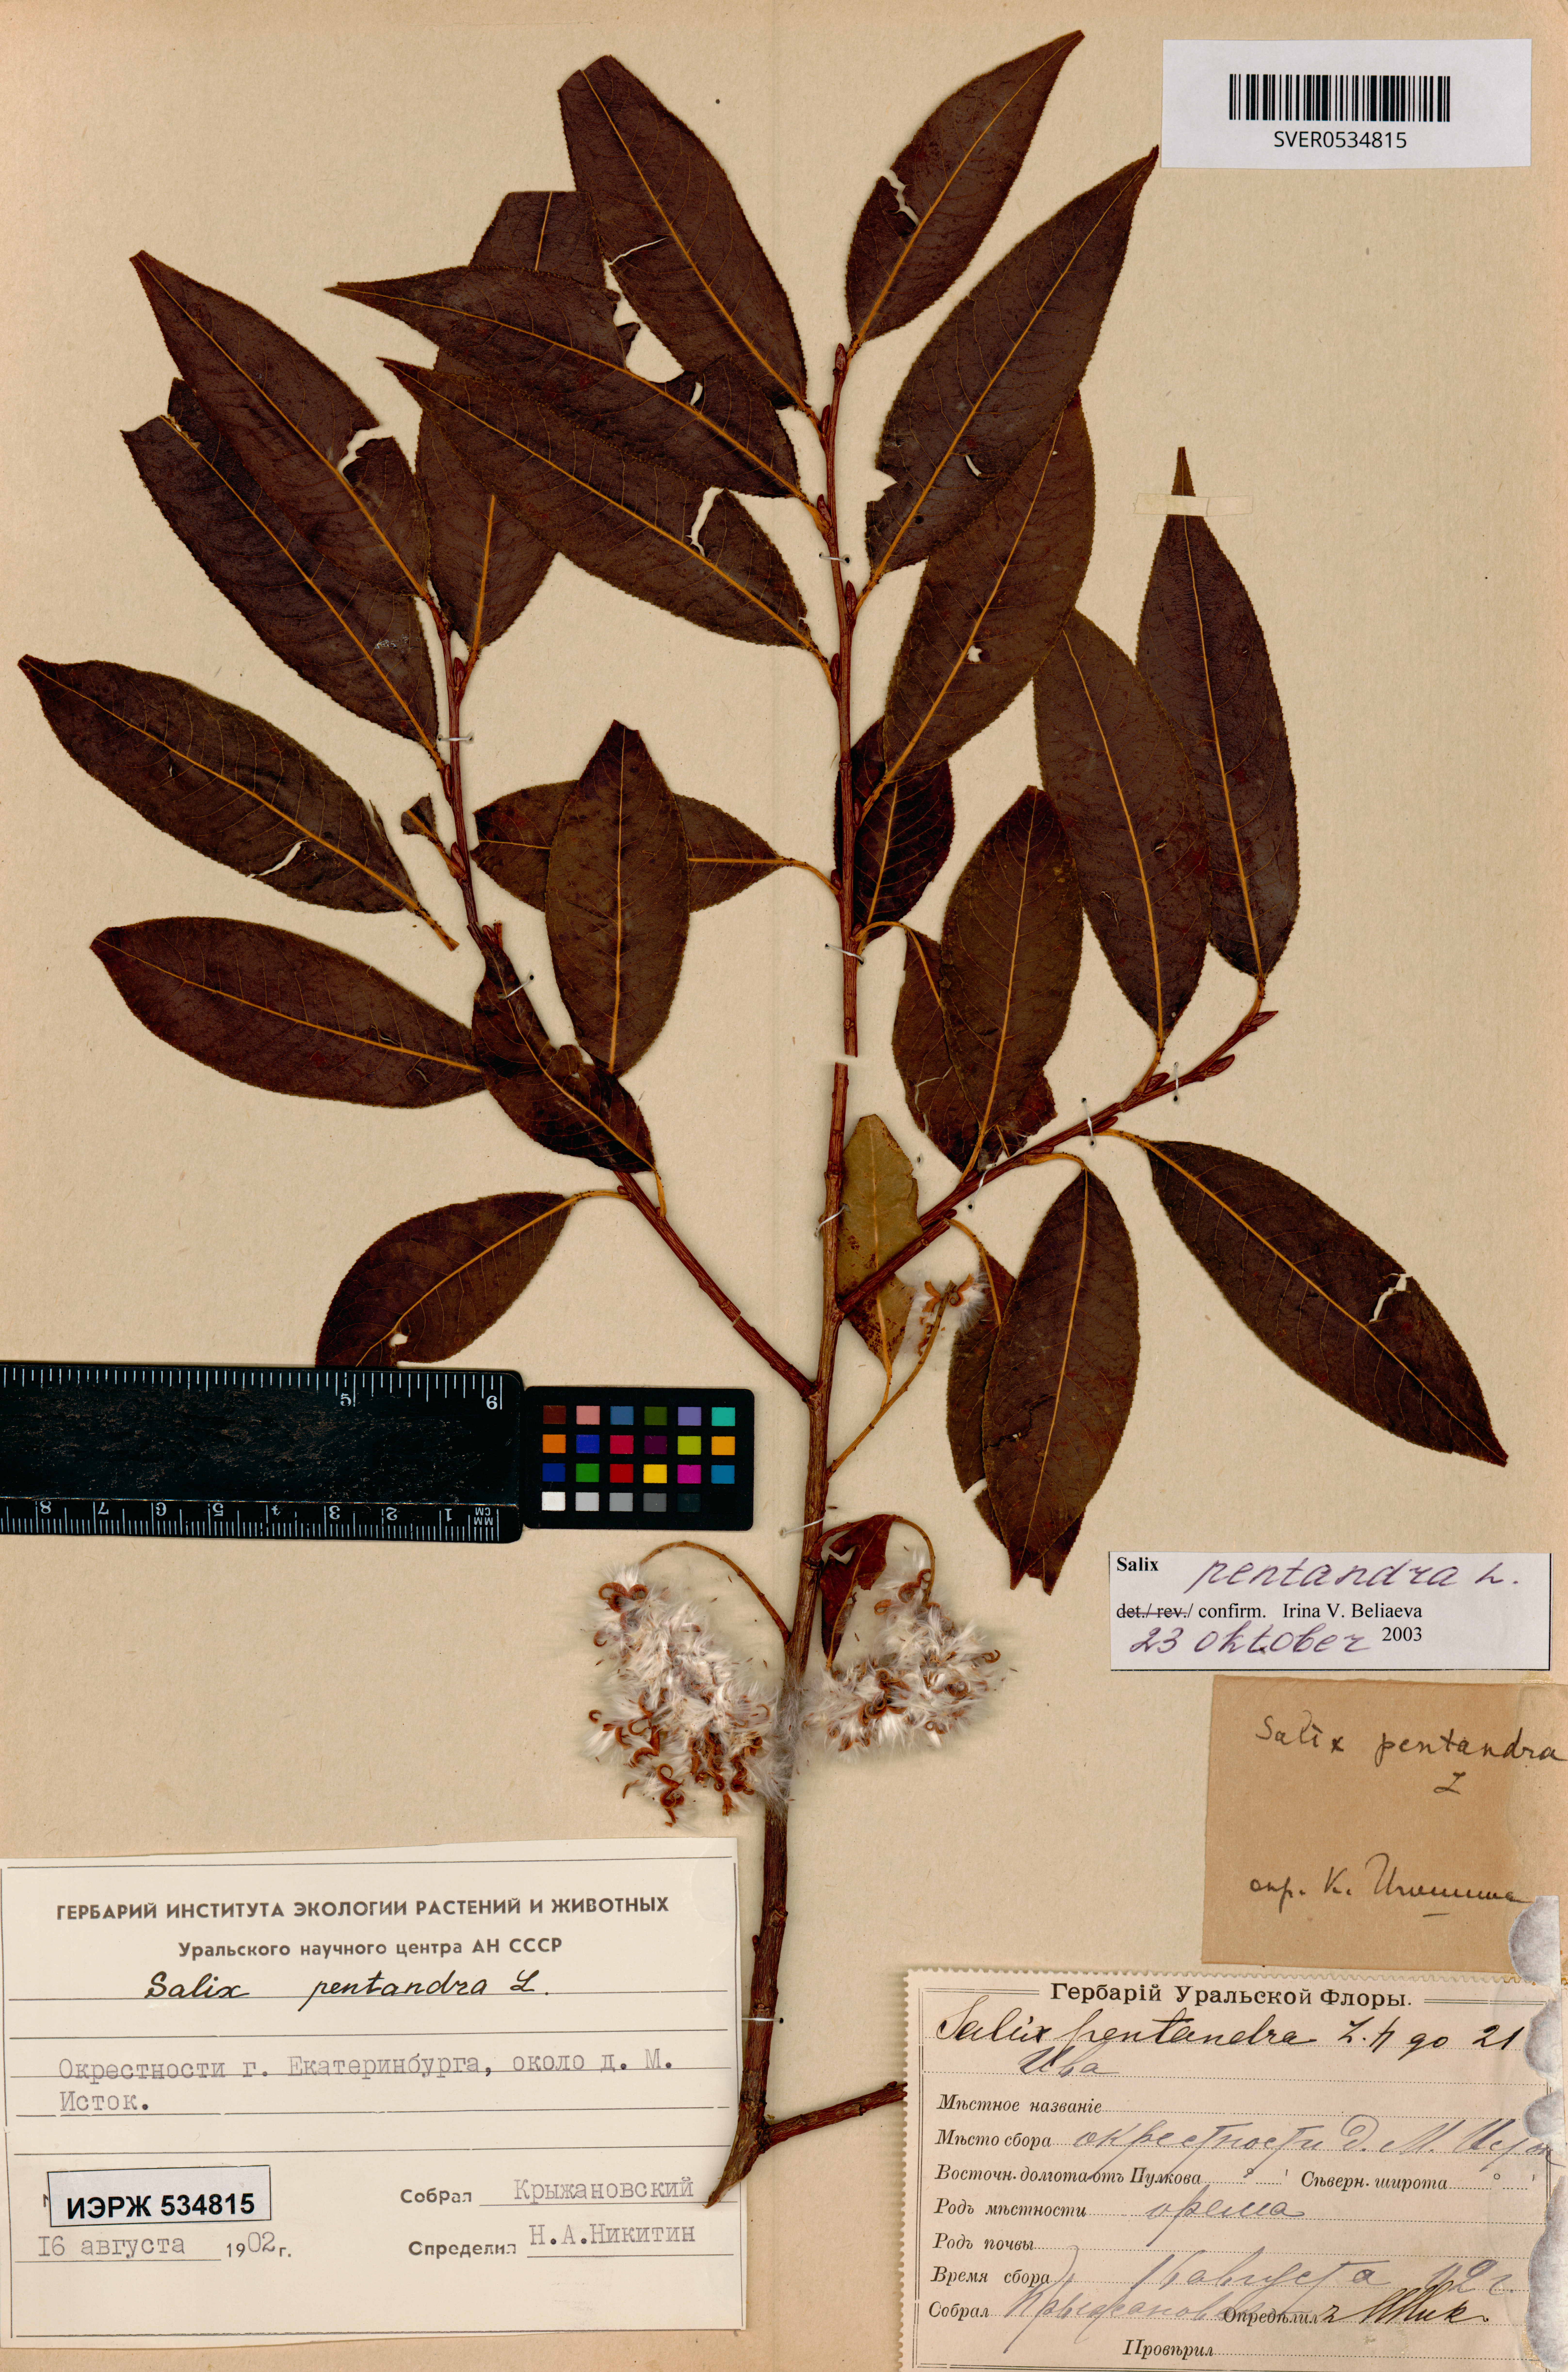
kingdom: Plantae
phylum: Tracheophyta
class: Magnoliopsida
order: Malpighiales
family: Salicaceae
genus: Salix
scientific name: Salix pentandra
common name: Bay willow
